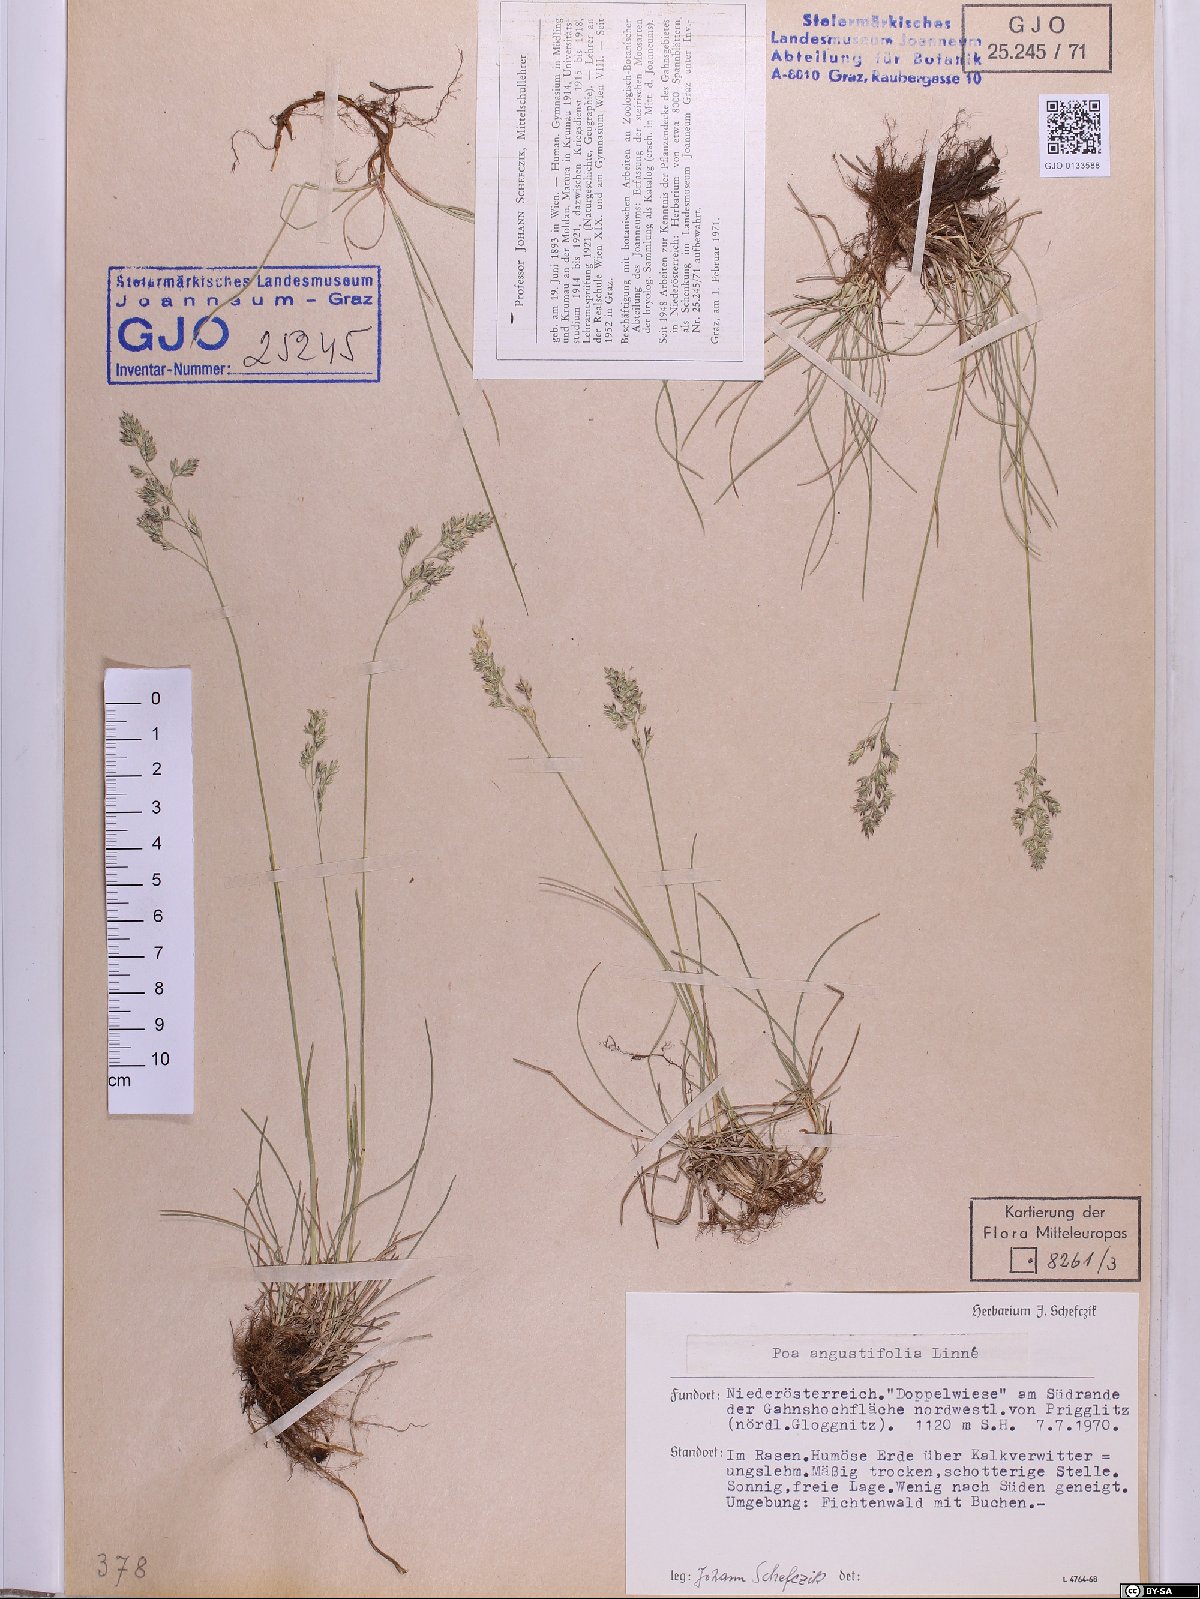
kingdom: Plantae
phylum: Tracheophyta
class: Liliopsida
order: Poales
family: Poaceae
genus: Poa
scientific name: Poa angustifolia
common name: Narrow-leaved meadow-grass
